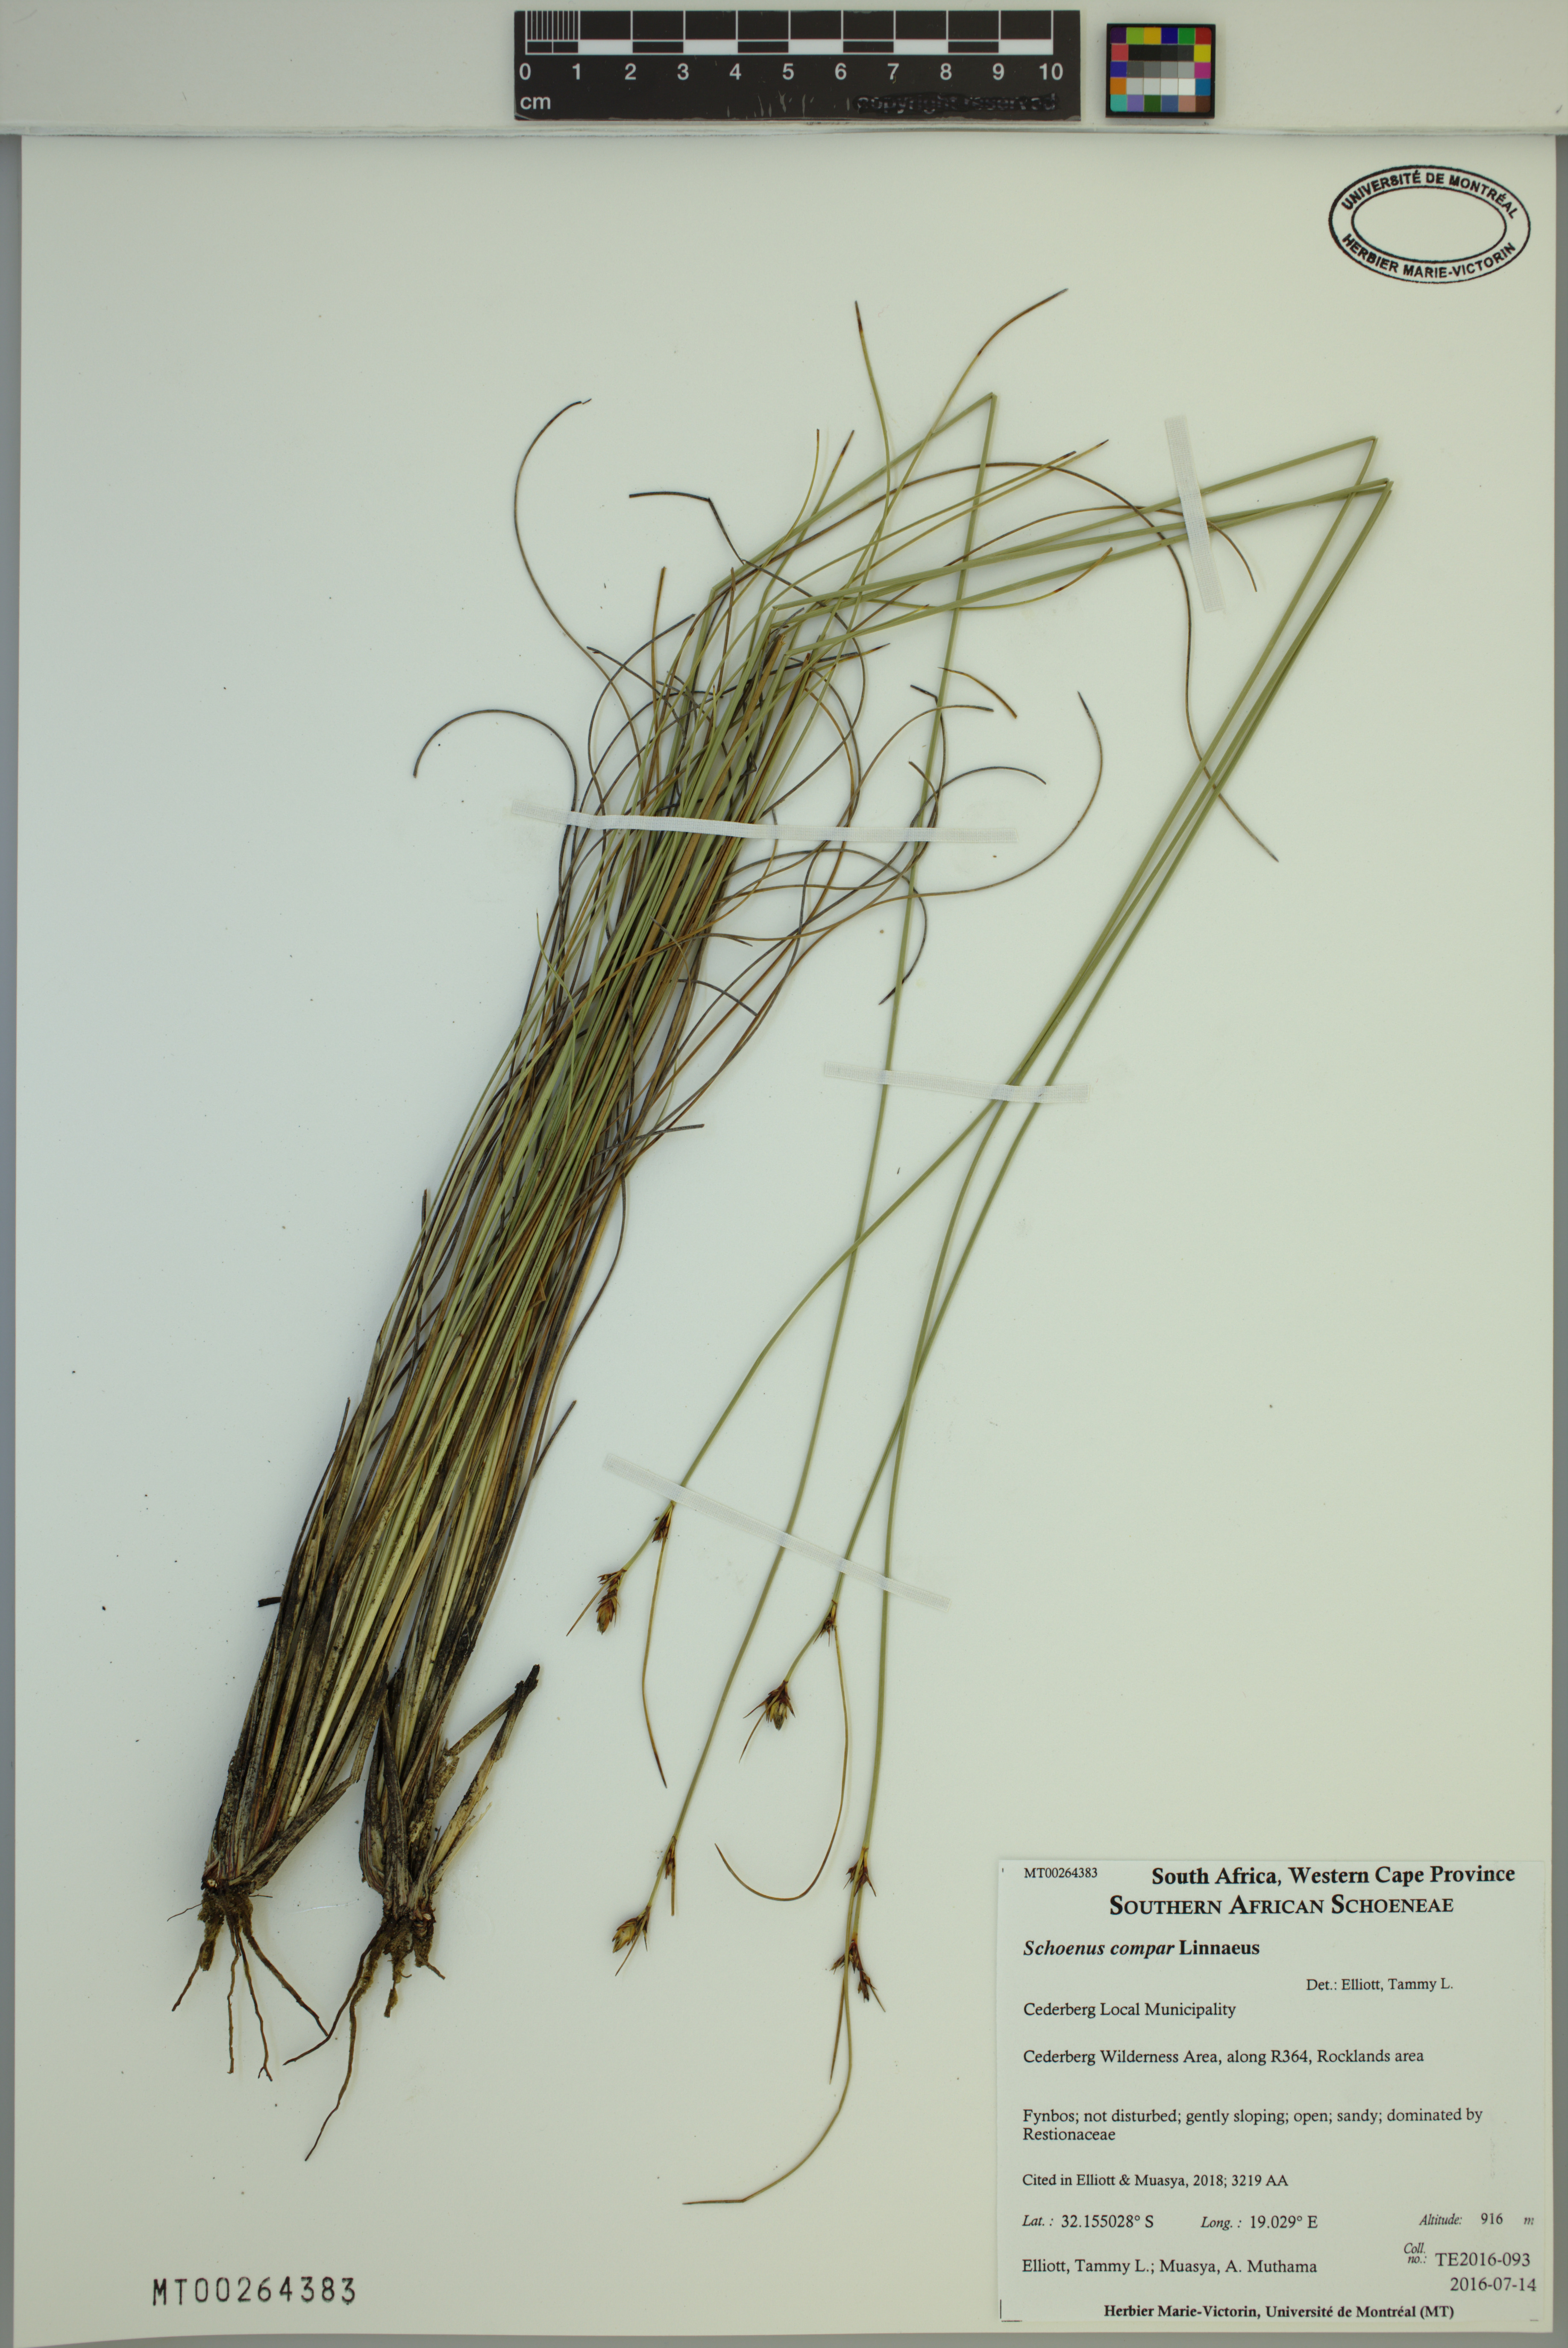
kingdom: Plantae
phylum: Tracheophyta
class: Liliopsida
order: Poales
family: Cyperaceae
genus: Schoenus
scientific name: Schoenus compar
